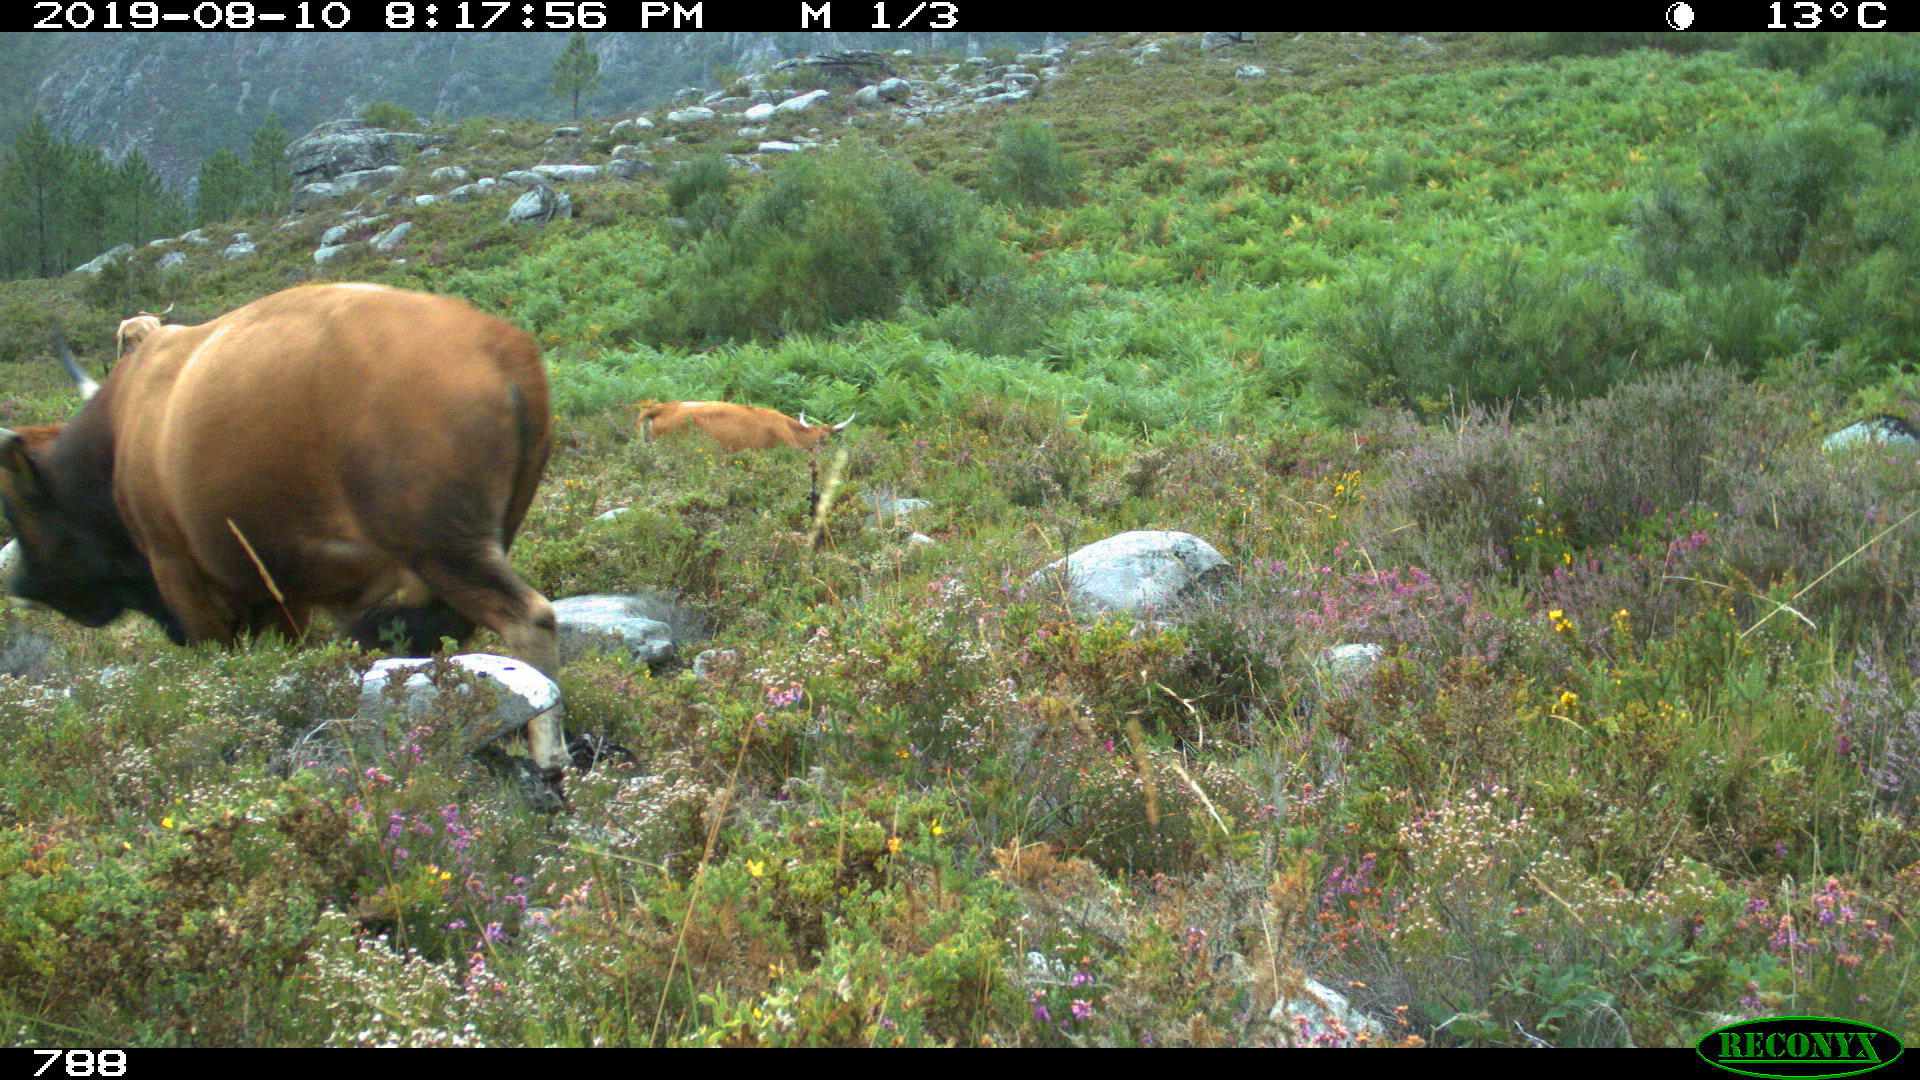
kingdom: Animalia
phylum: Chordata
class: Mammalia
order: Artiodactyla
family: Bovidae
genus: Bos
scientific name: Bos taurus
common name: Domesticated cattle
